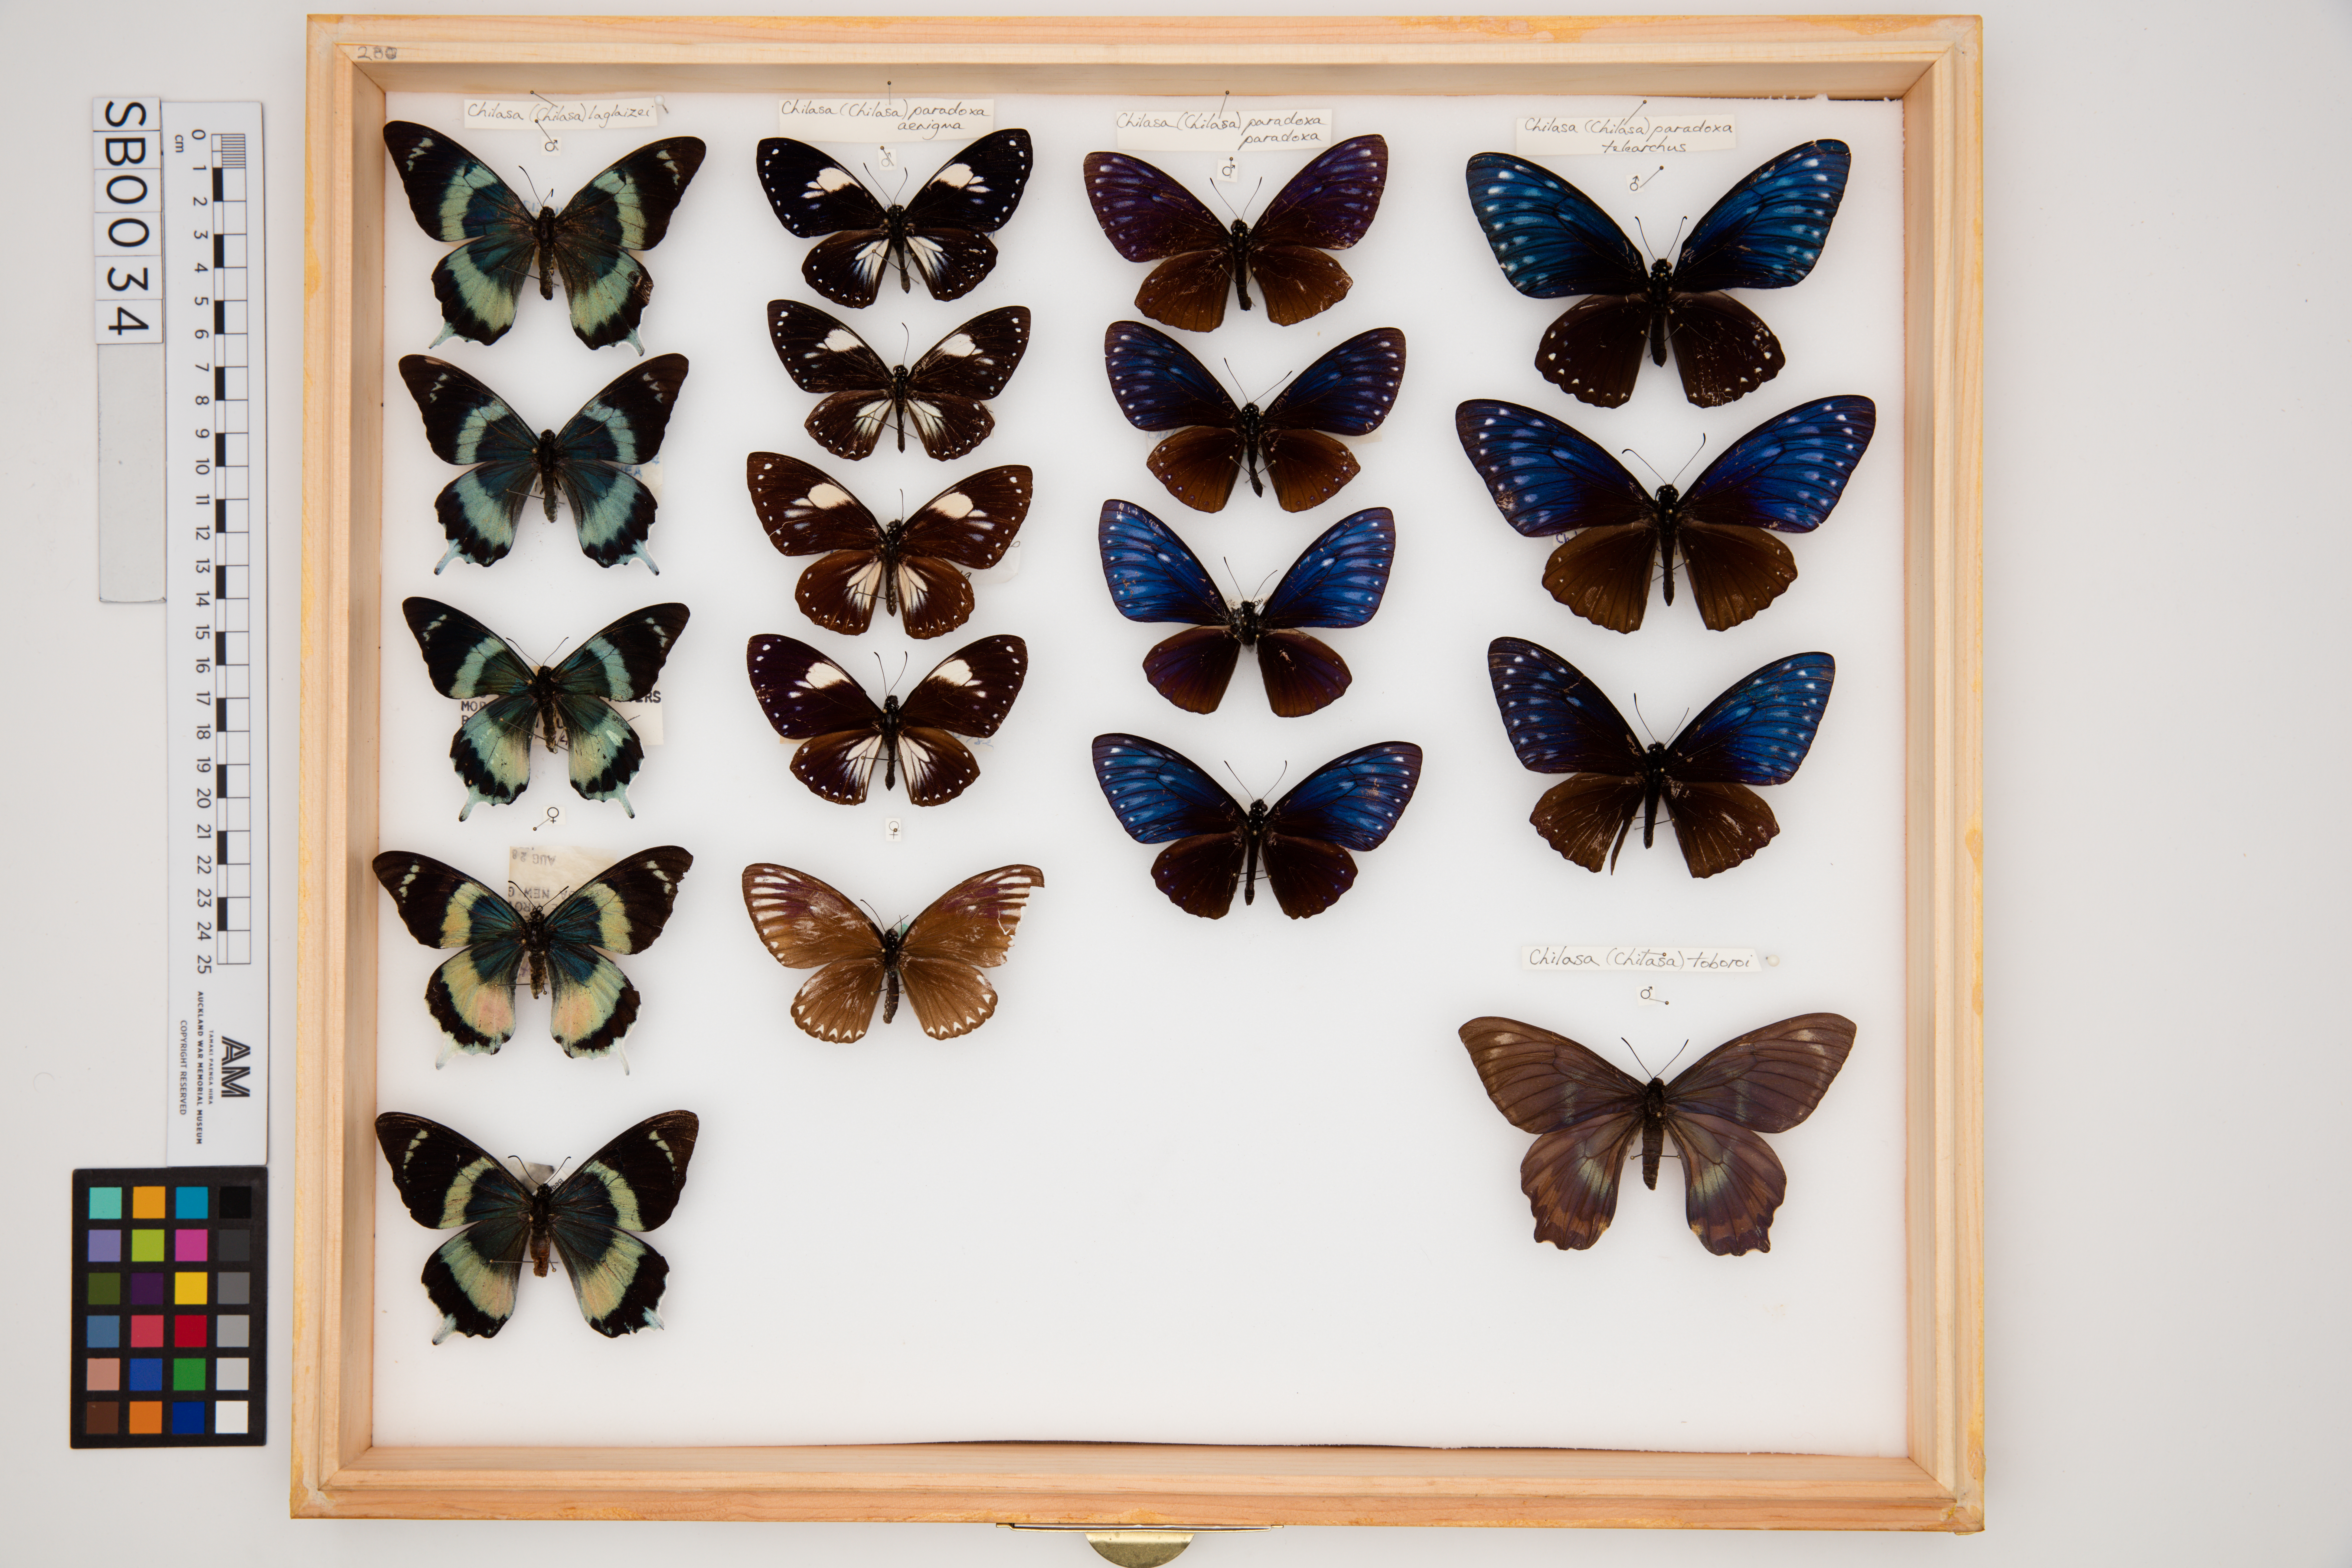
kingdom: Animalia
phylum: Arthropoda
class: Insecta
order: Lepidoptera
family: Papilionidae
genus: Chilasa
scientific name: Chilasa paradoxa
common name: Great mime
